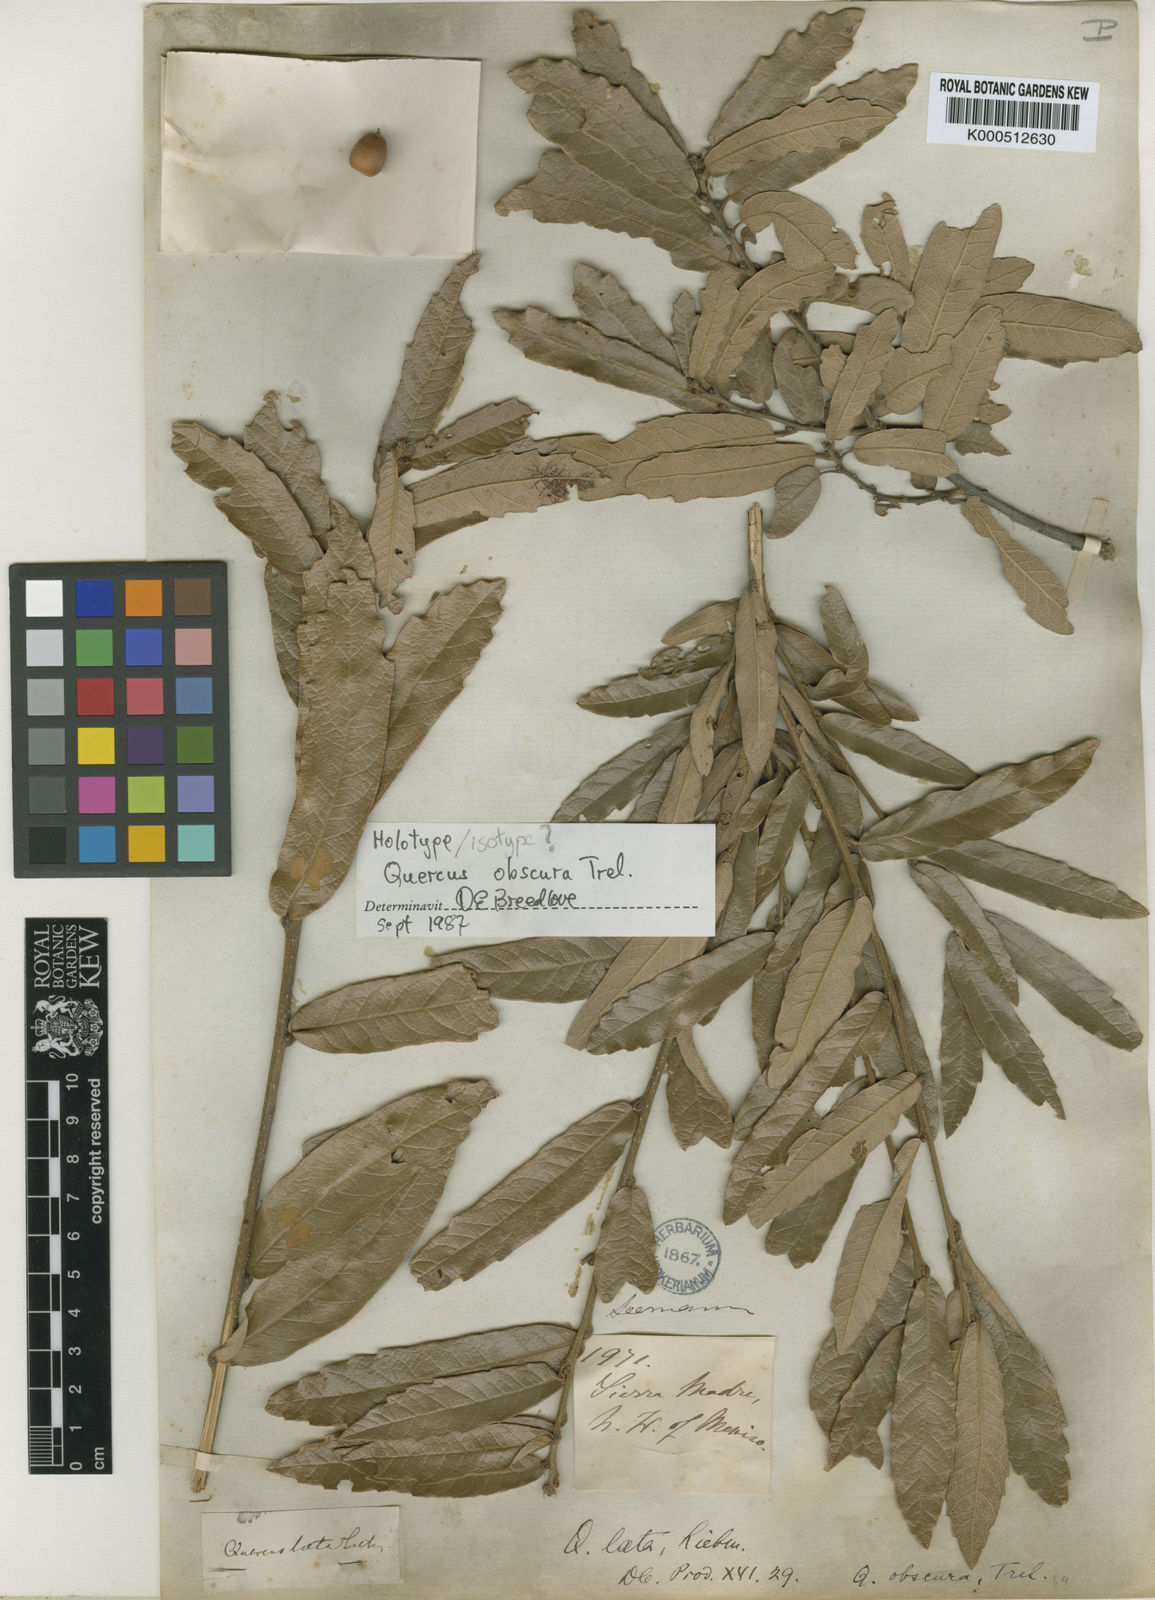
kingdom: Plantae
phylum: Tracheophyta
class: Magnoliopsida
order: Fagales
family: Fagaceae
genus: Quercus
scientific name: Quercus laeta
